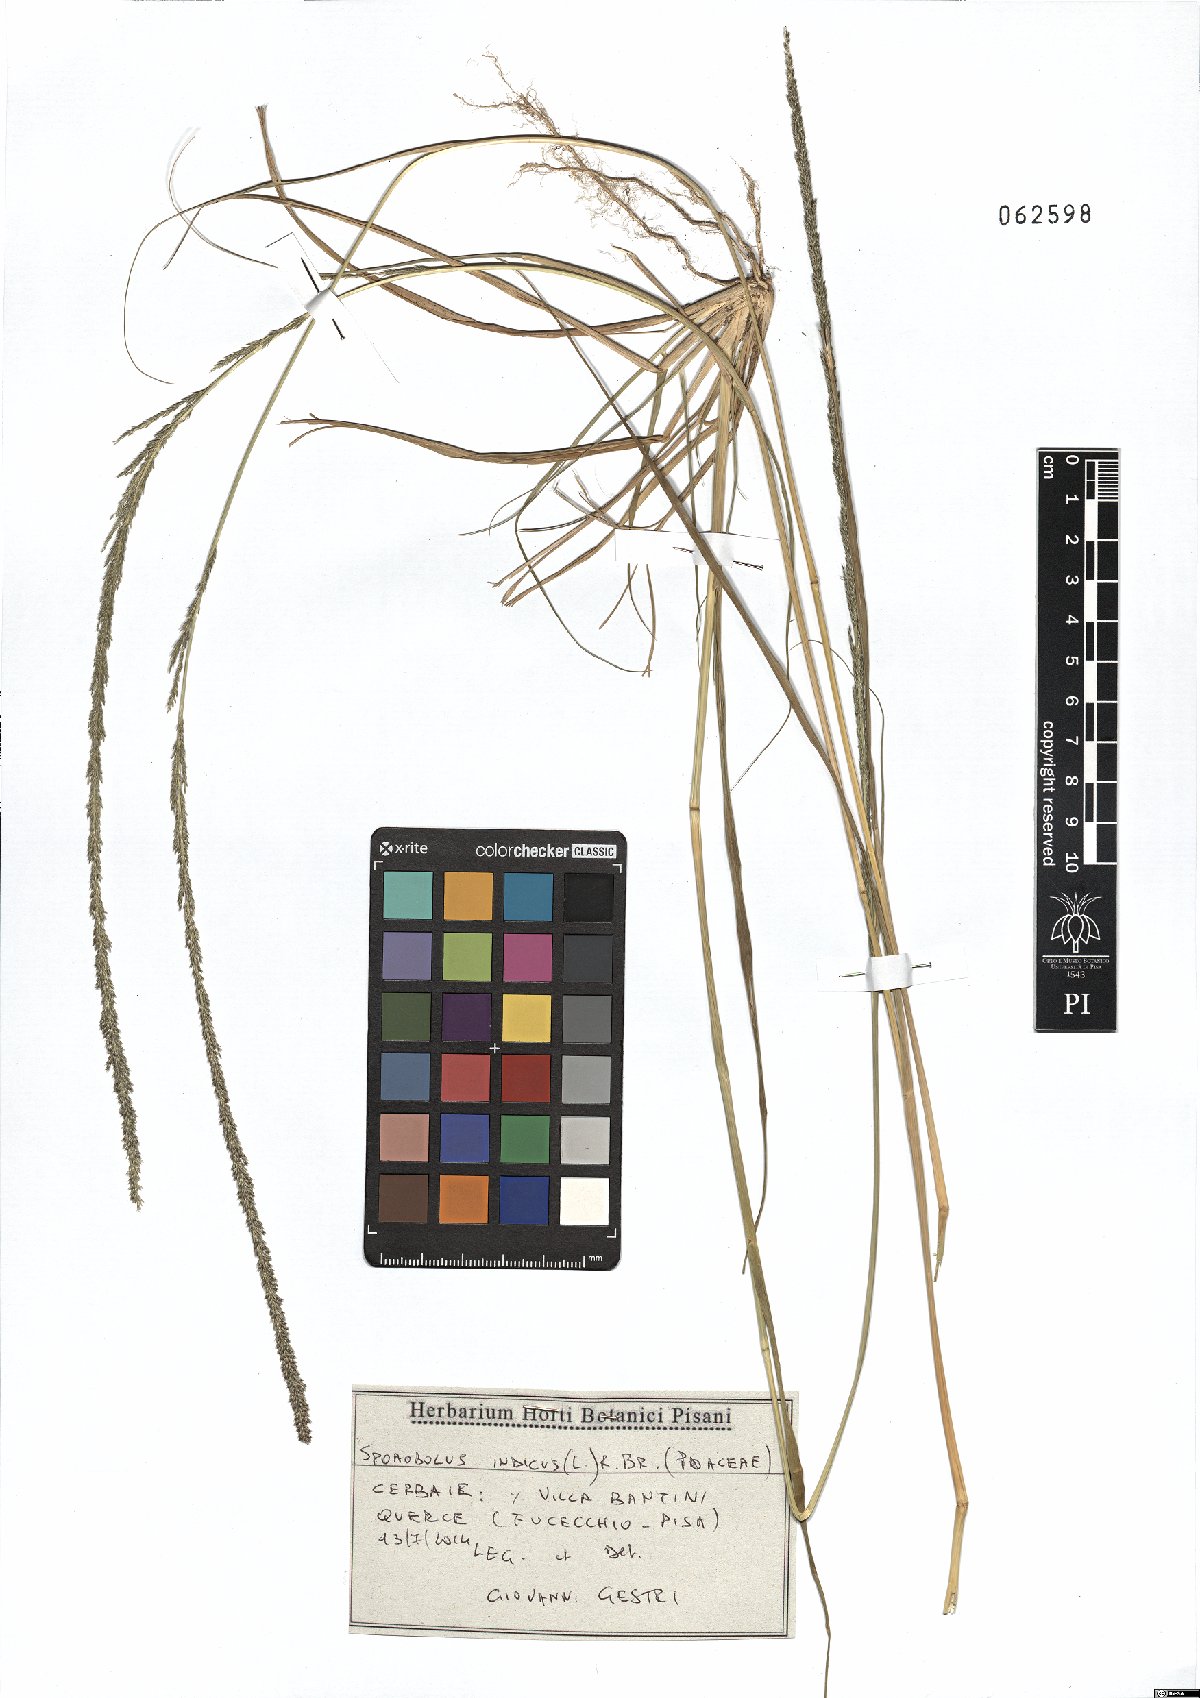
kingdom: Plantae
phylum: Tracheophyta
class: Liliopsida
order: Poales
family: Poaceae
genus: Sporobolus
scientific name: Sporobolus indicus
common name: Smut grass
